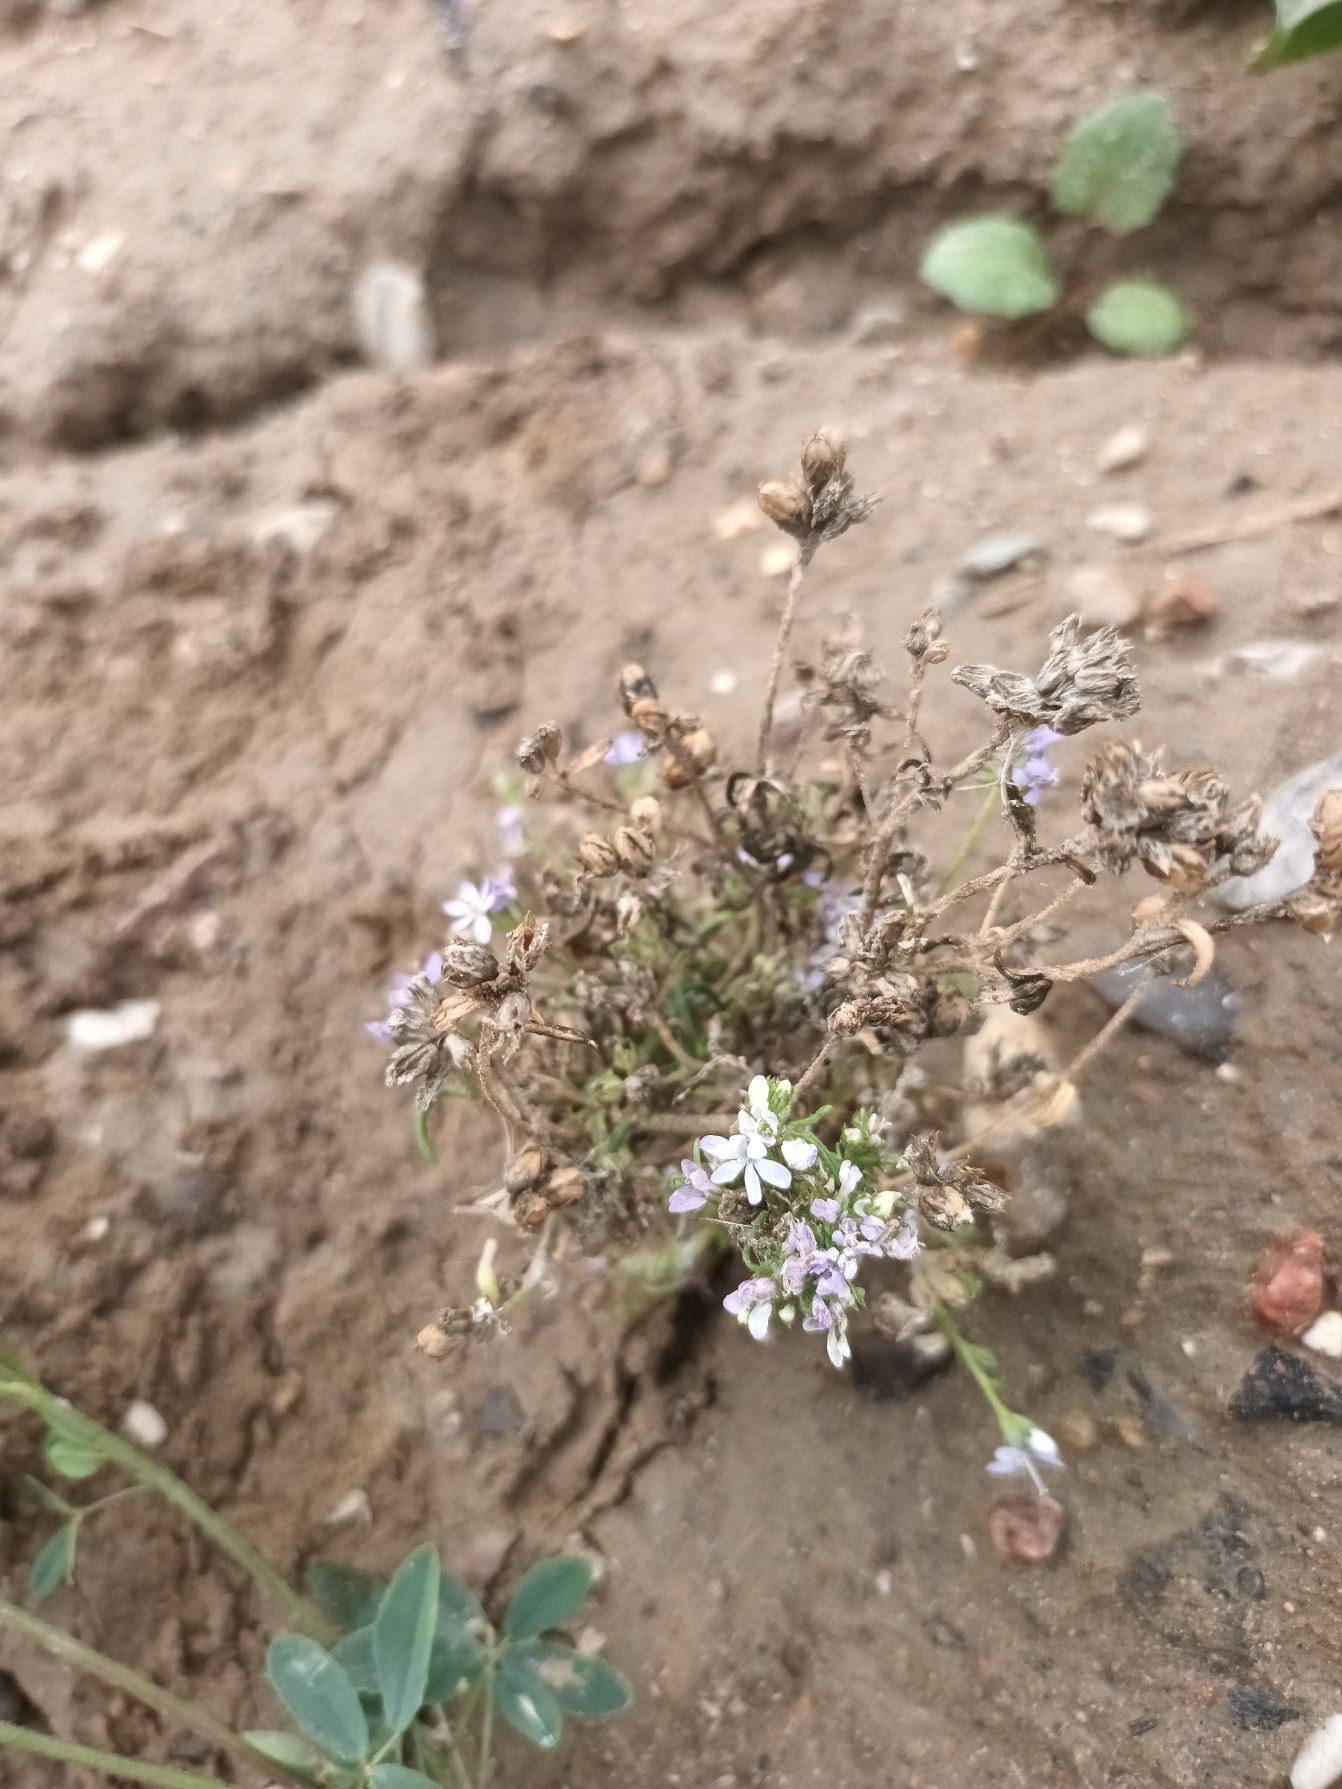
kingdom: Plantae
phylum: Tracheophyta
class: Magnoliopsida
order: Ericales
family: Polemoniaceae
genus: Gilia
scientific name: Gilia achilleifolia
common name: Fjer-blåhoved
